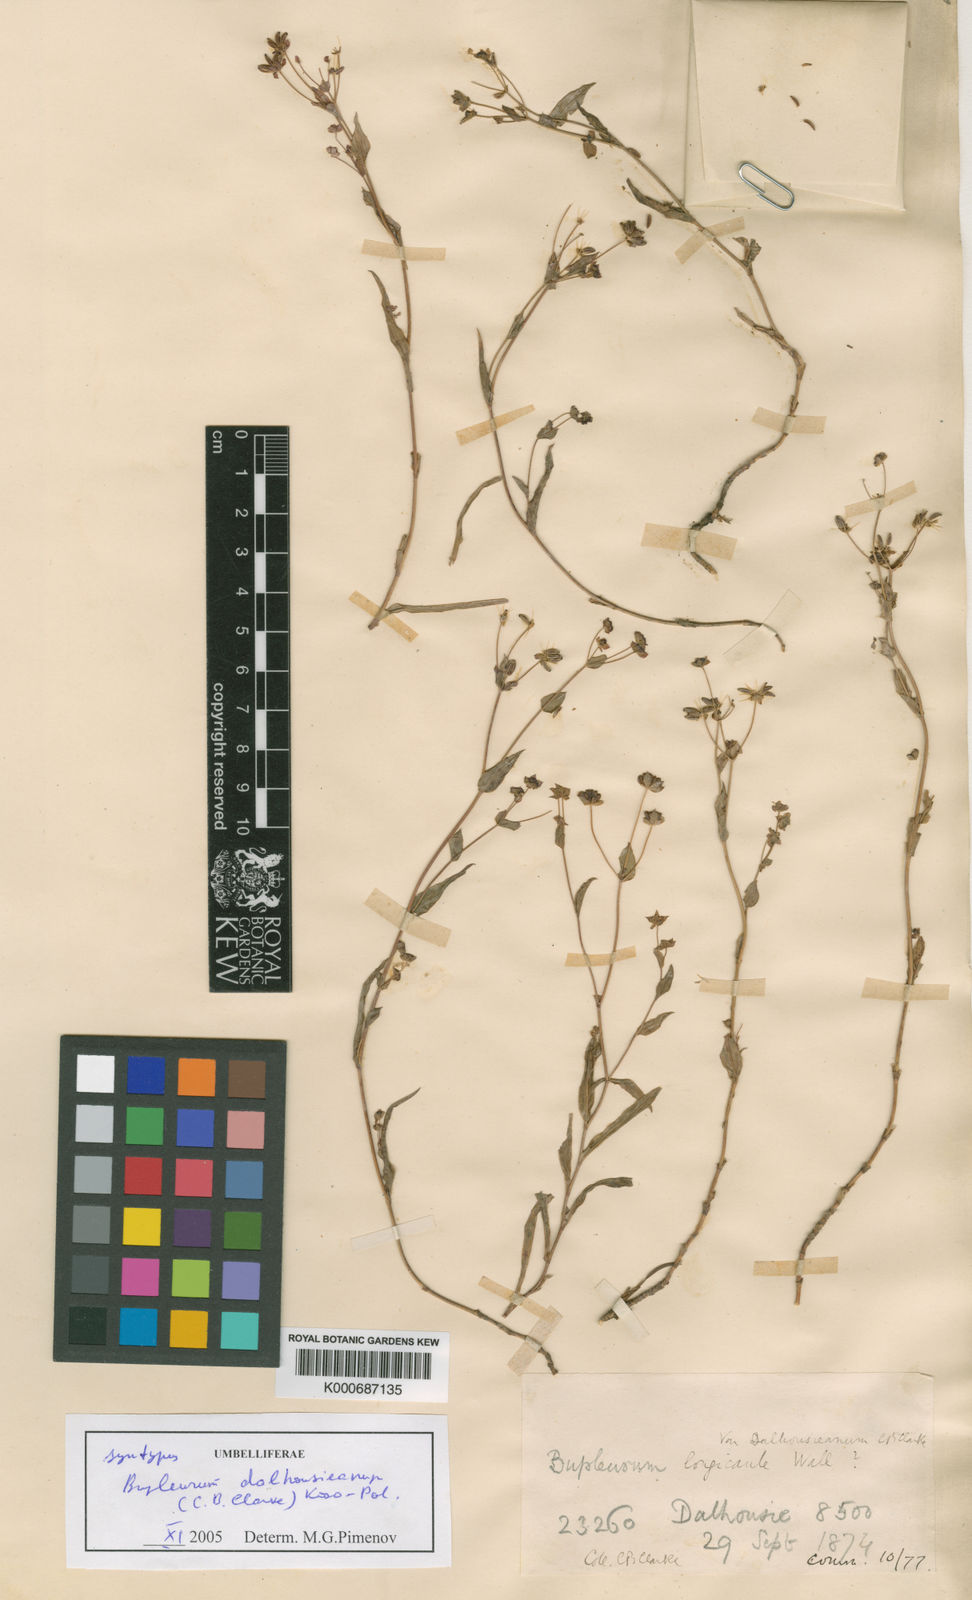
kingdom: Plantae
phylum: Tracheophyta
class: Magnoliopsida
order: Apiales
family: Apiaceae
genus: Bupleurum
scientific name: Bupleurum dalhousieanum
